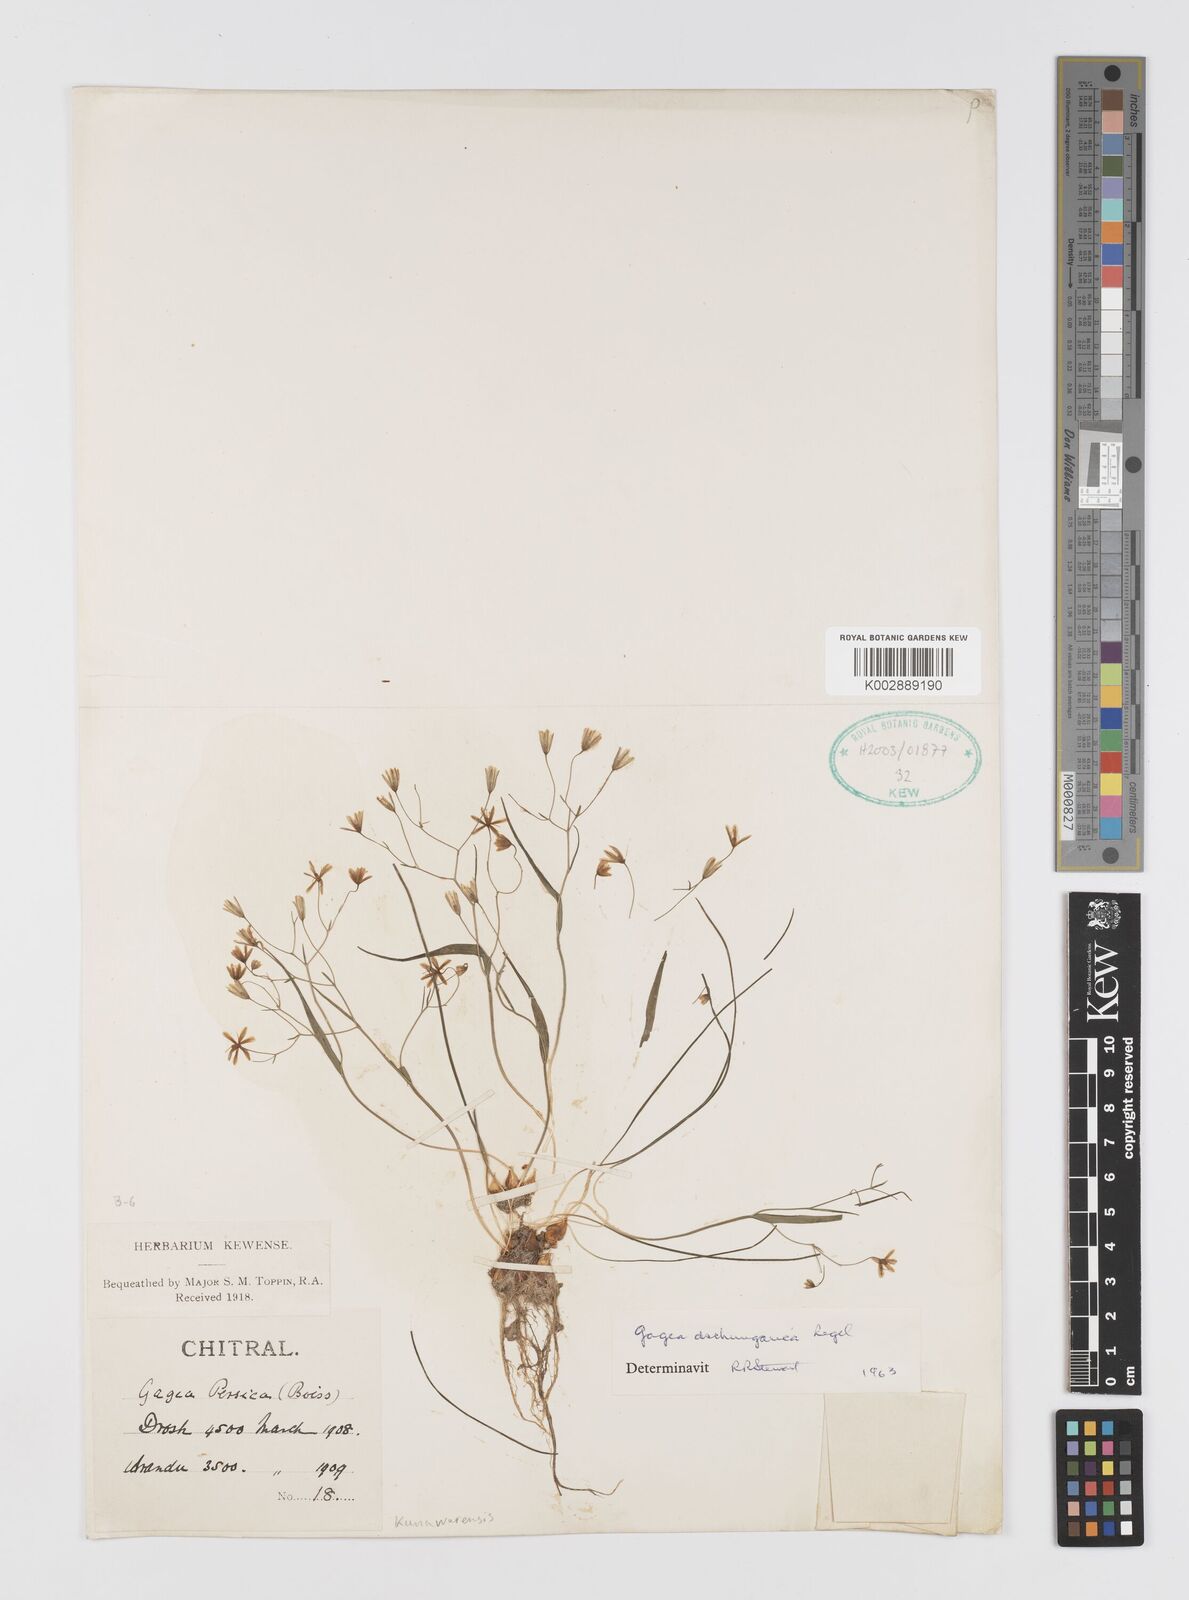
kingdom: Plantae
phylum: Tracheophyta
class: Liliopsida
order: Liliales
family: Liliaceae
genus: Gagea
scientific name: Gagea dschungarica
